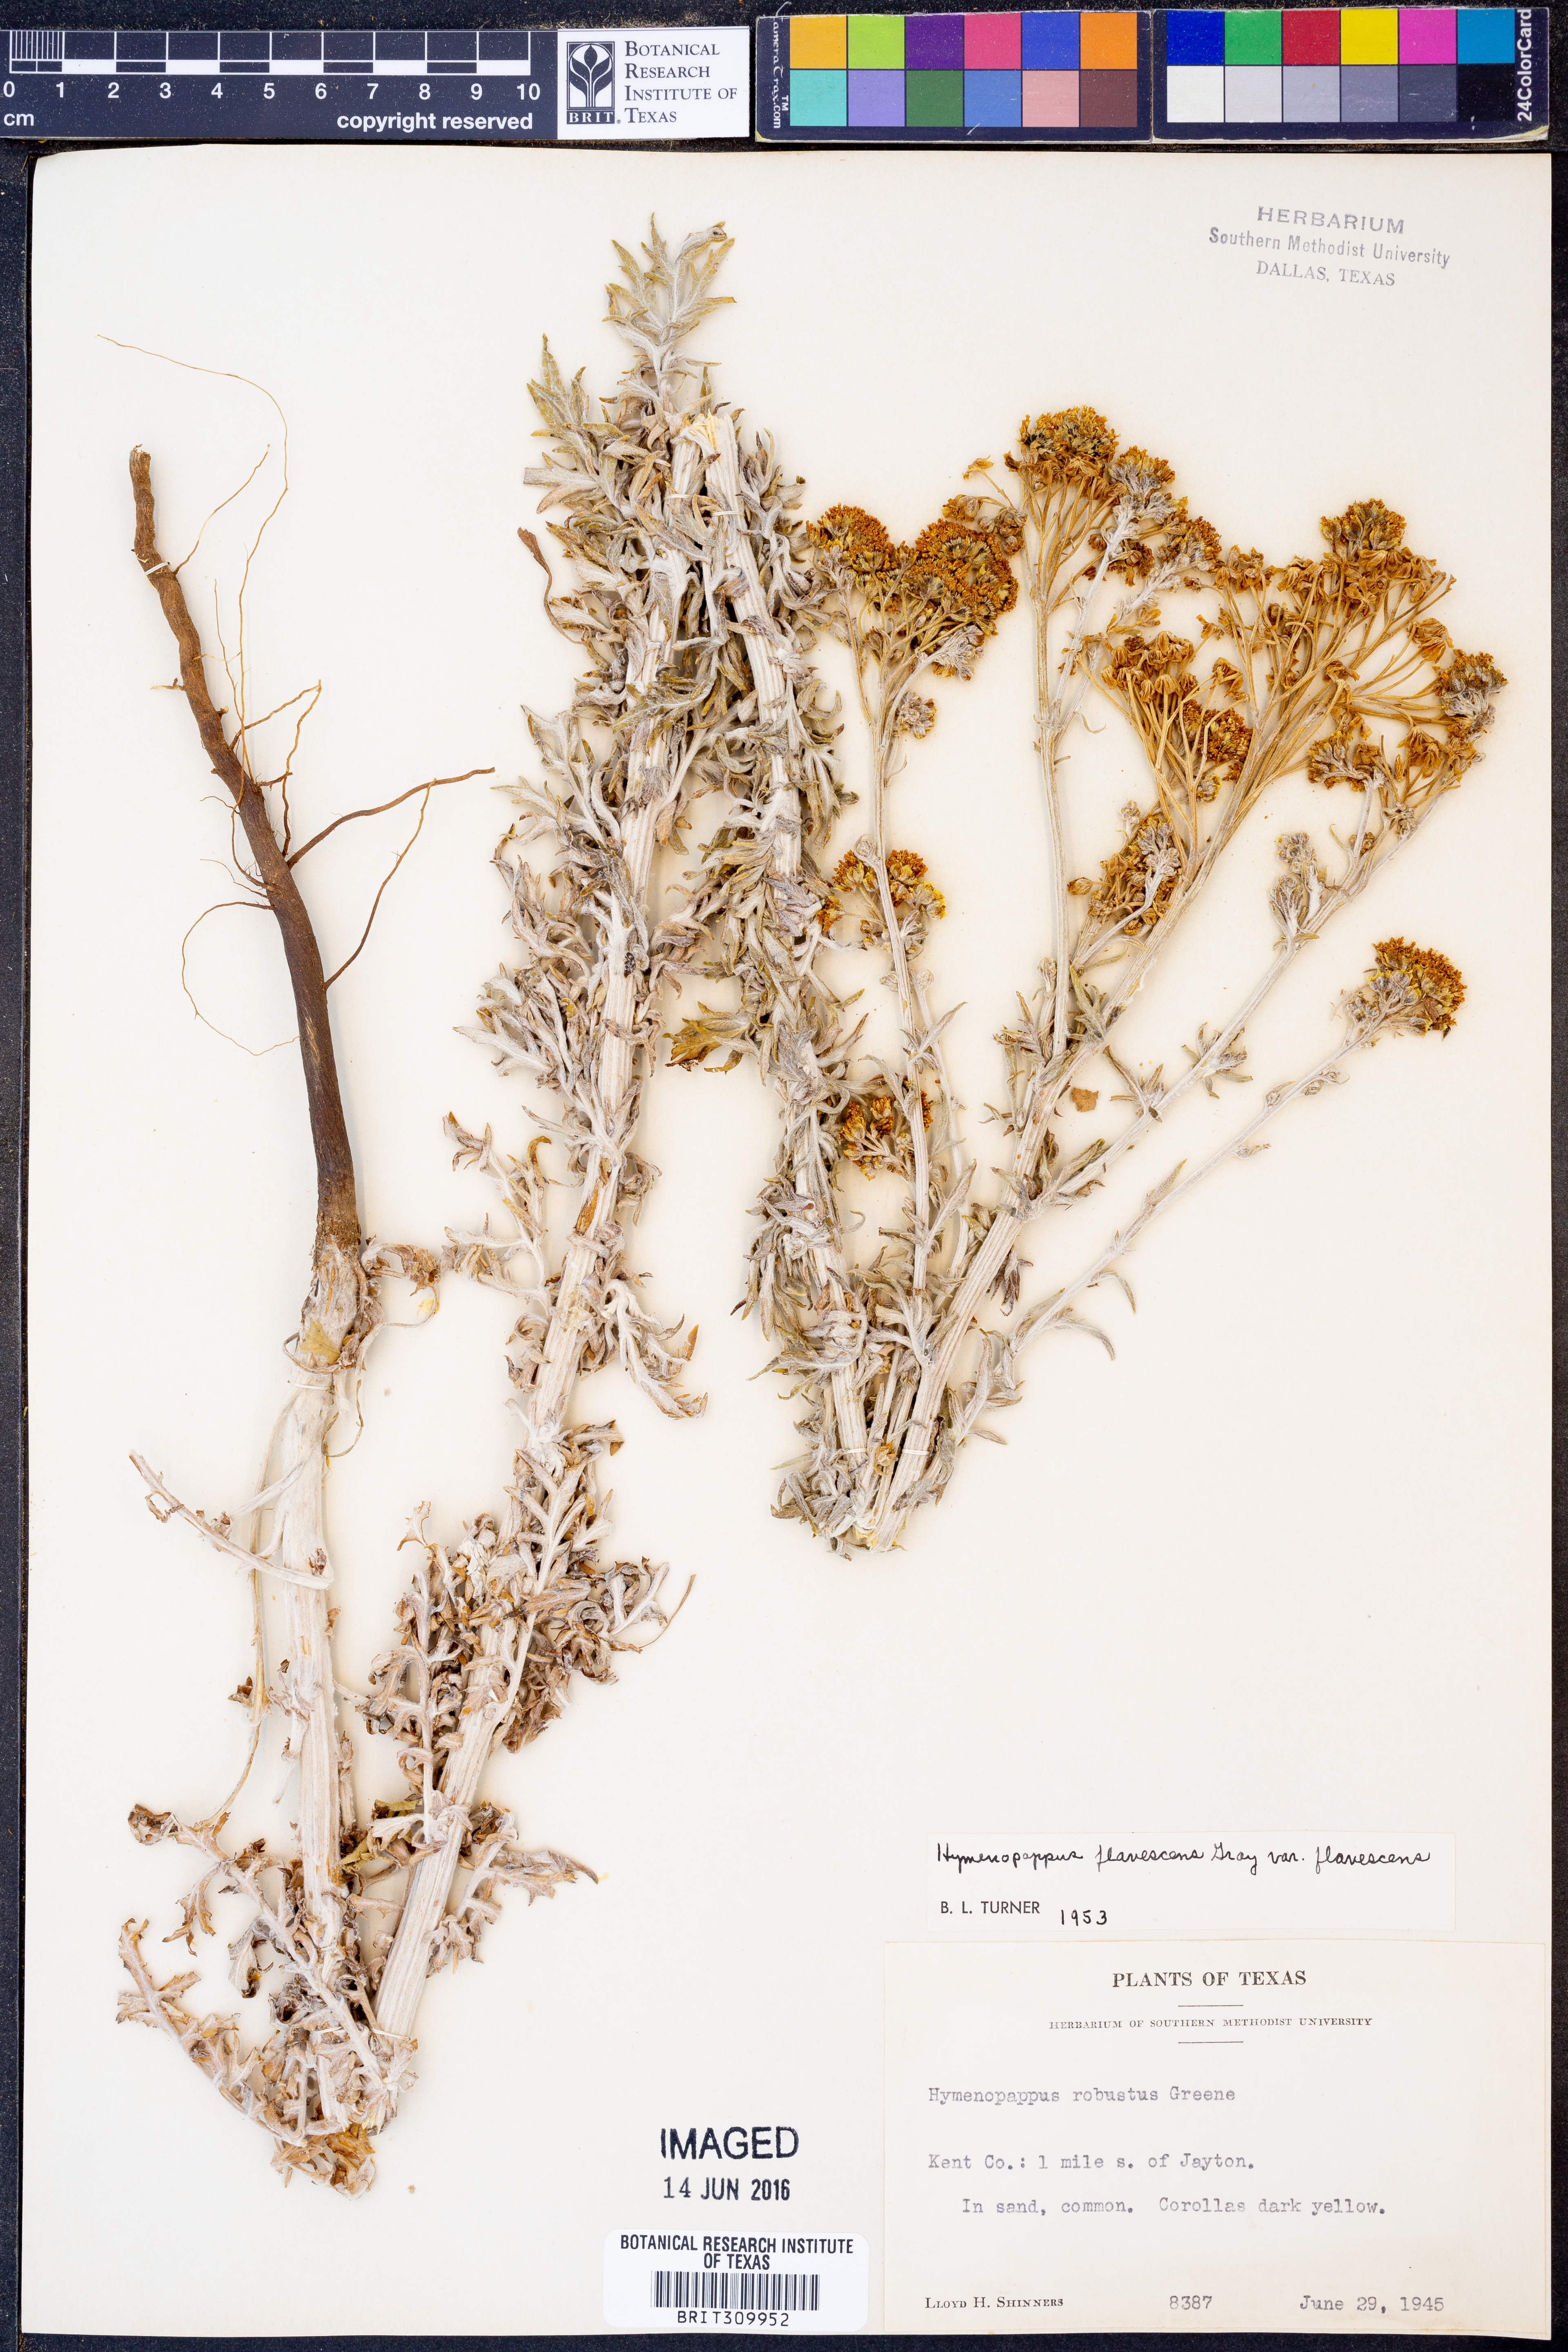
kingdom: Plantae
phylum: Tracheophyta
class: Magnoliopsida
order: Asterales
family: Asteraceae
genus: Hymenopappus
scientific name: Hymenopappus flavescens
